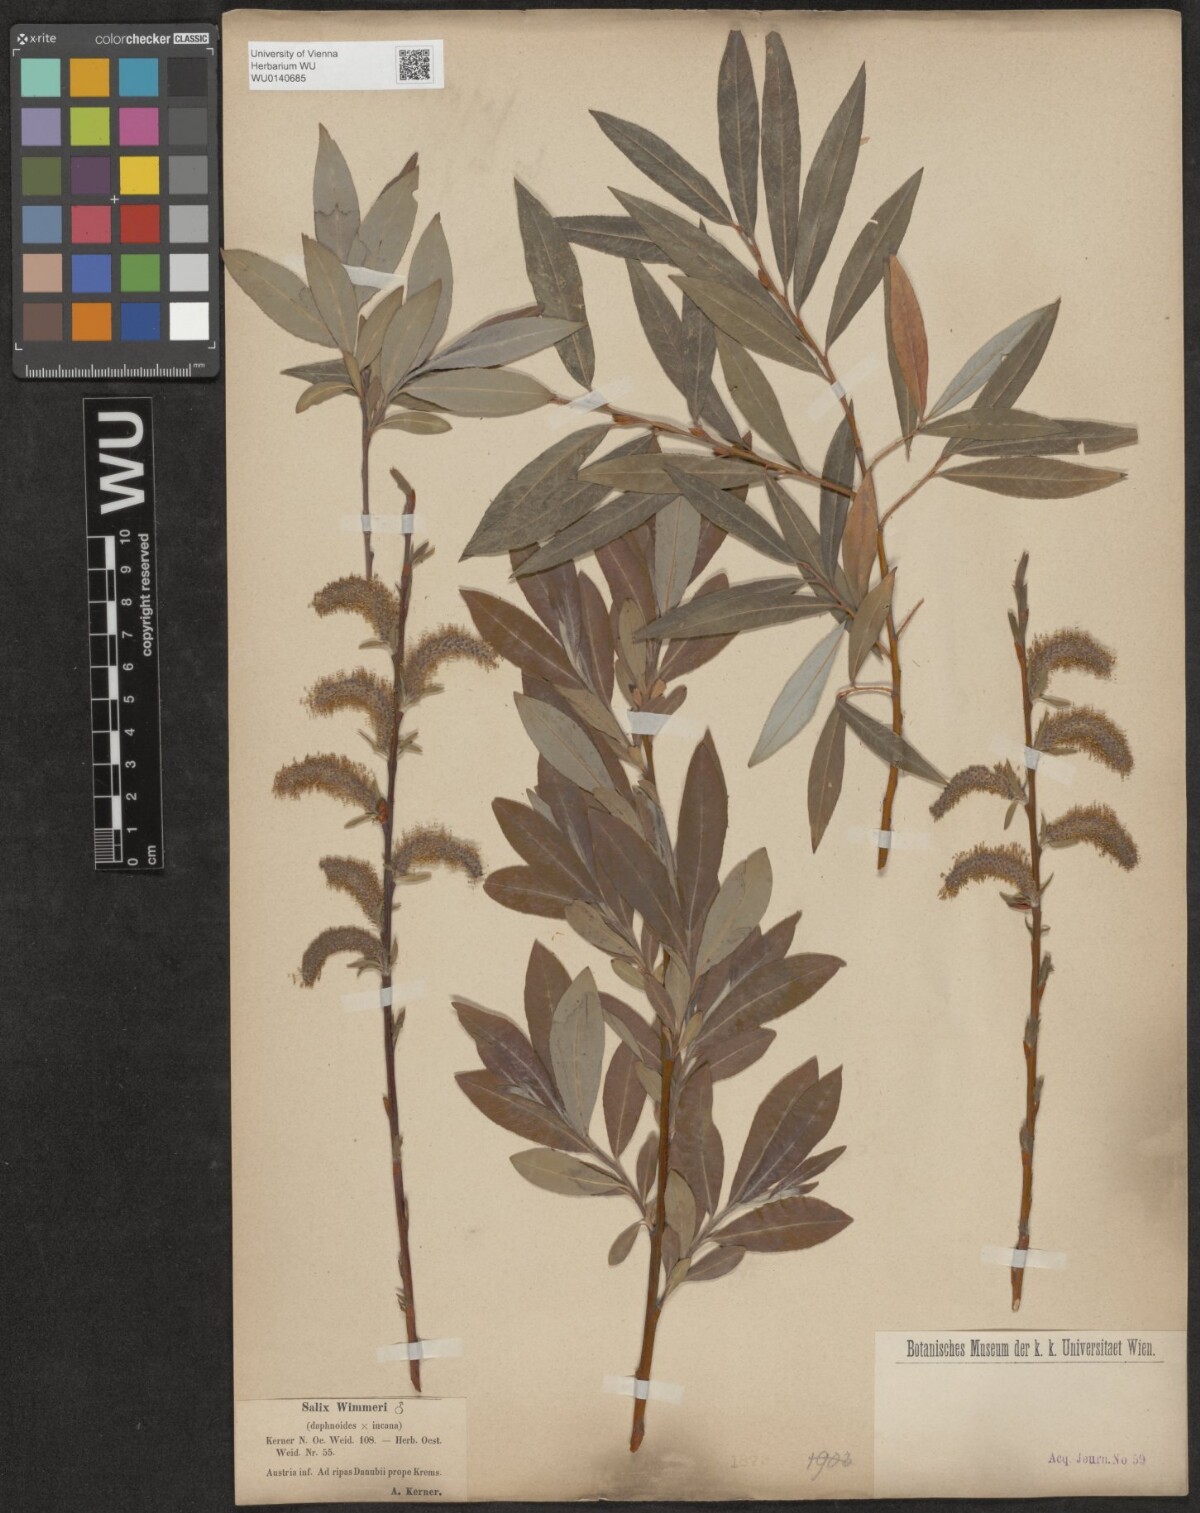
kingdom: Plantae
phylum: Tracheophyta
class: Magnoliopsida
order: Malpighiales
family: Salicaceae
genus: Salix
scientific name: Salix
